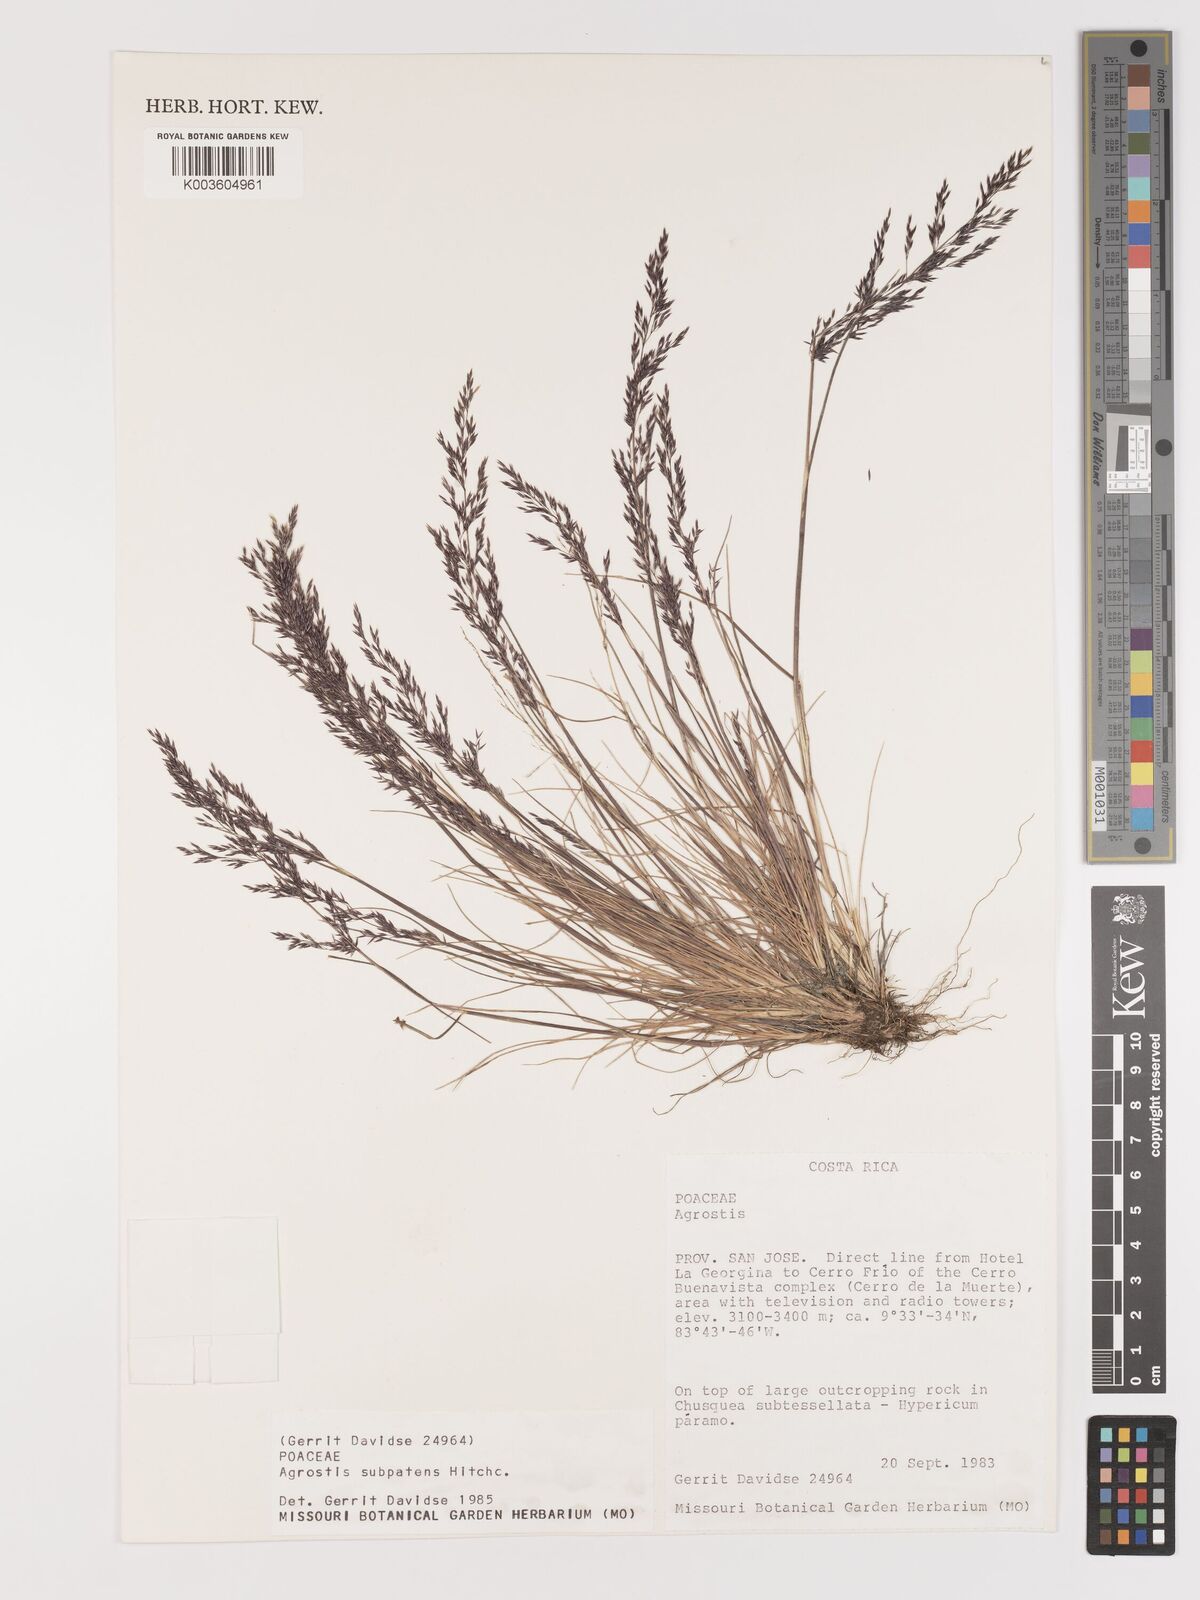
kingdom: Plantae
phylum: Tracheophyta
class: Liliopsida
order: Poales
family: Poaceae
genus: Agrostis
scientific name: Agrostis subpatens
